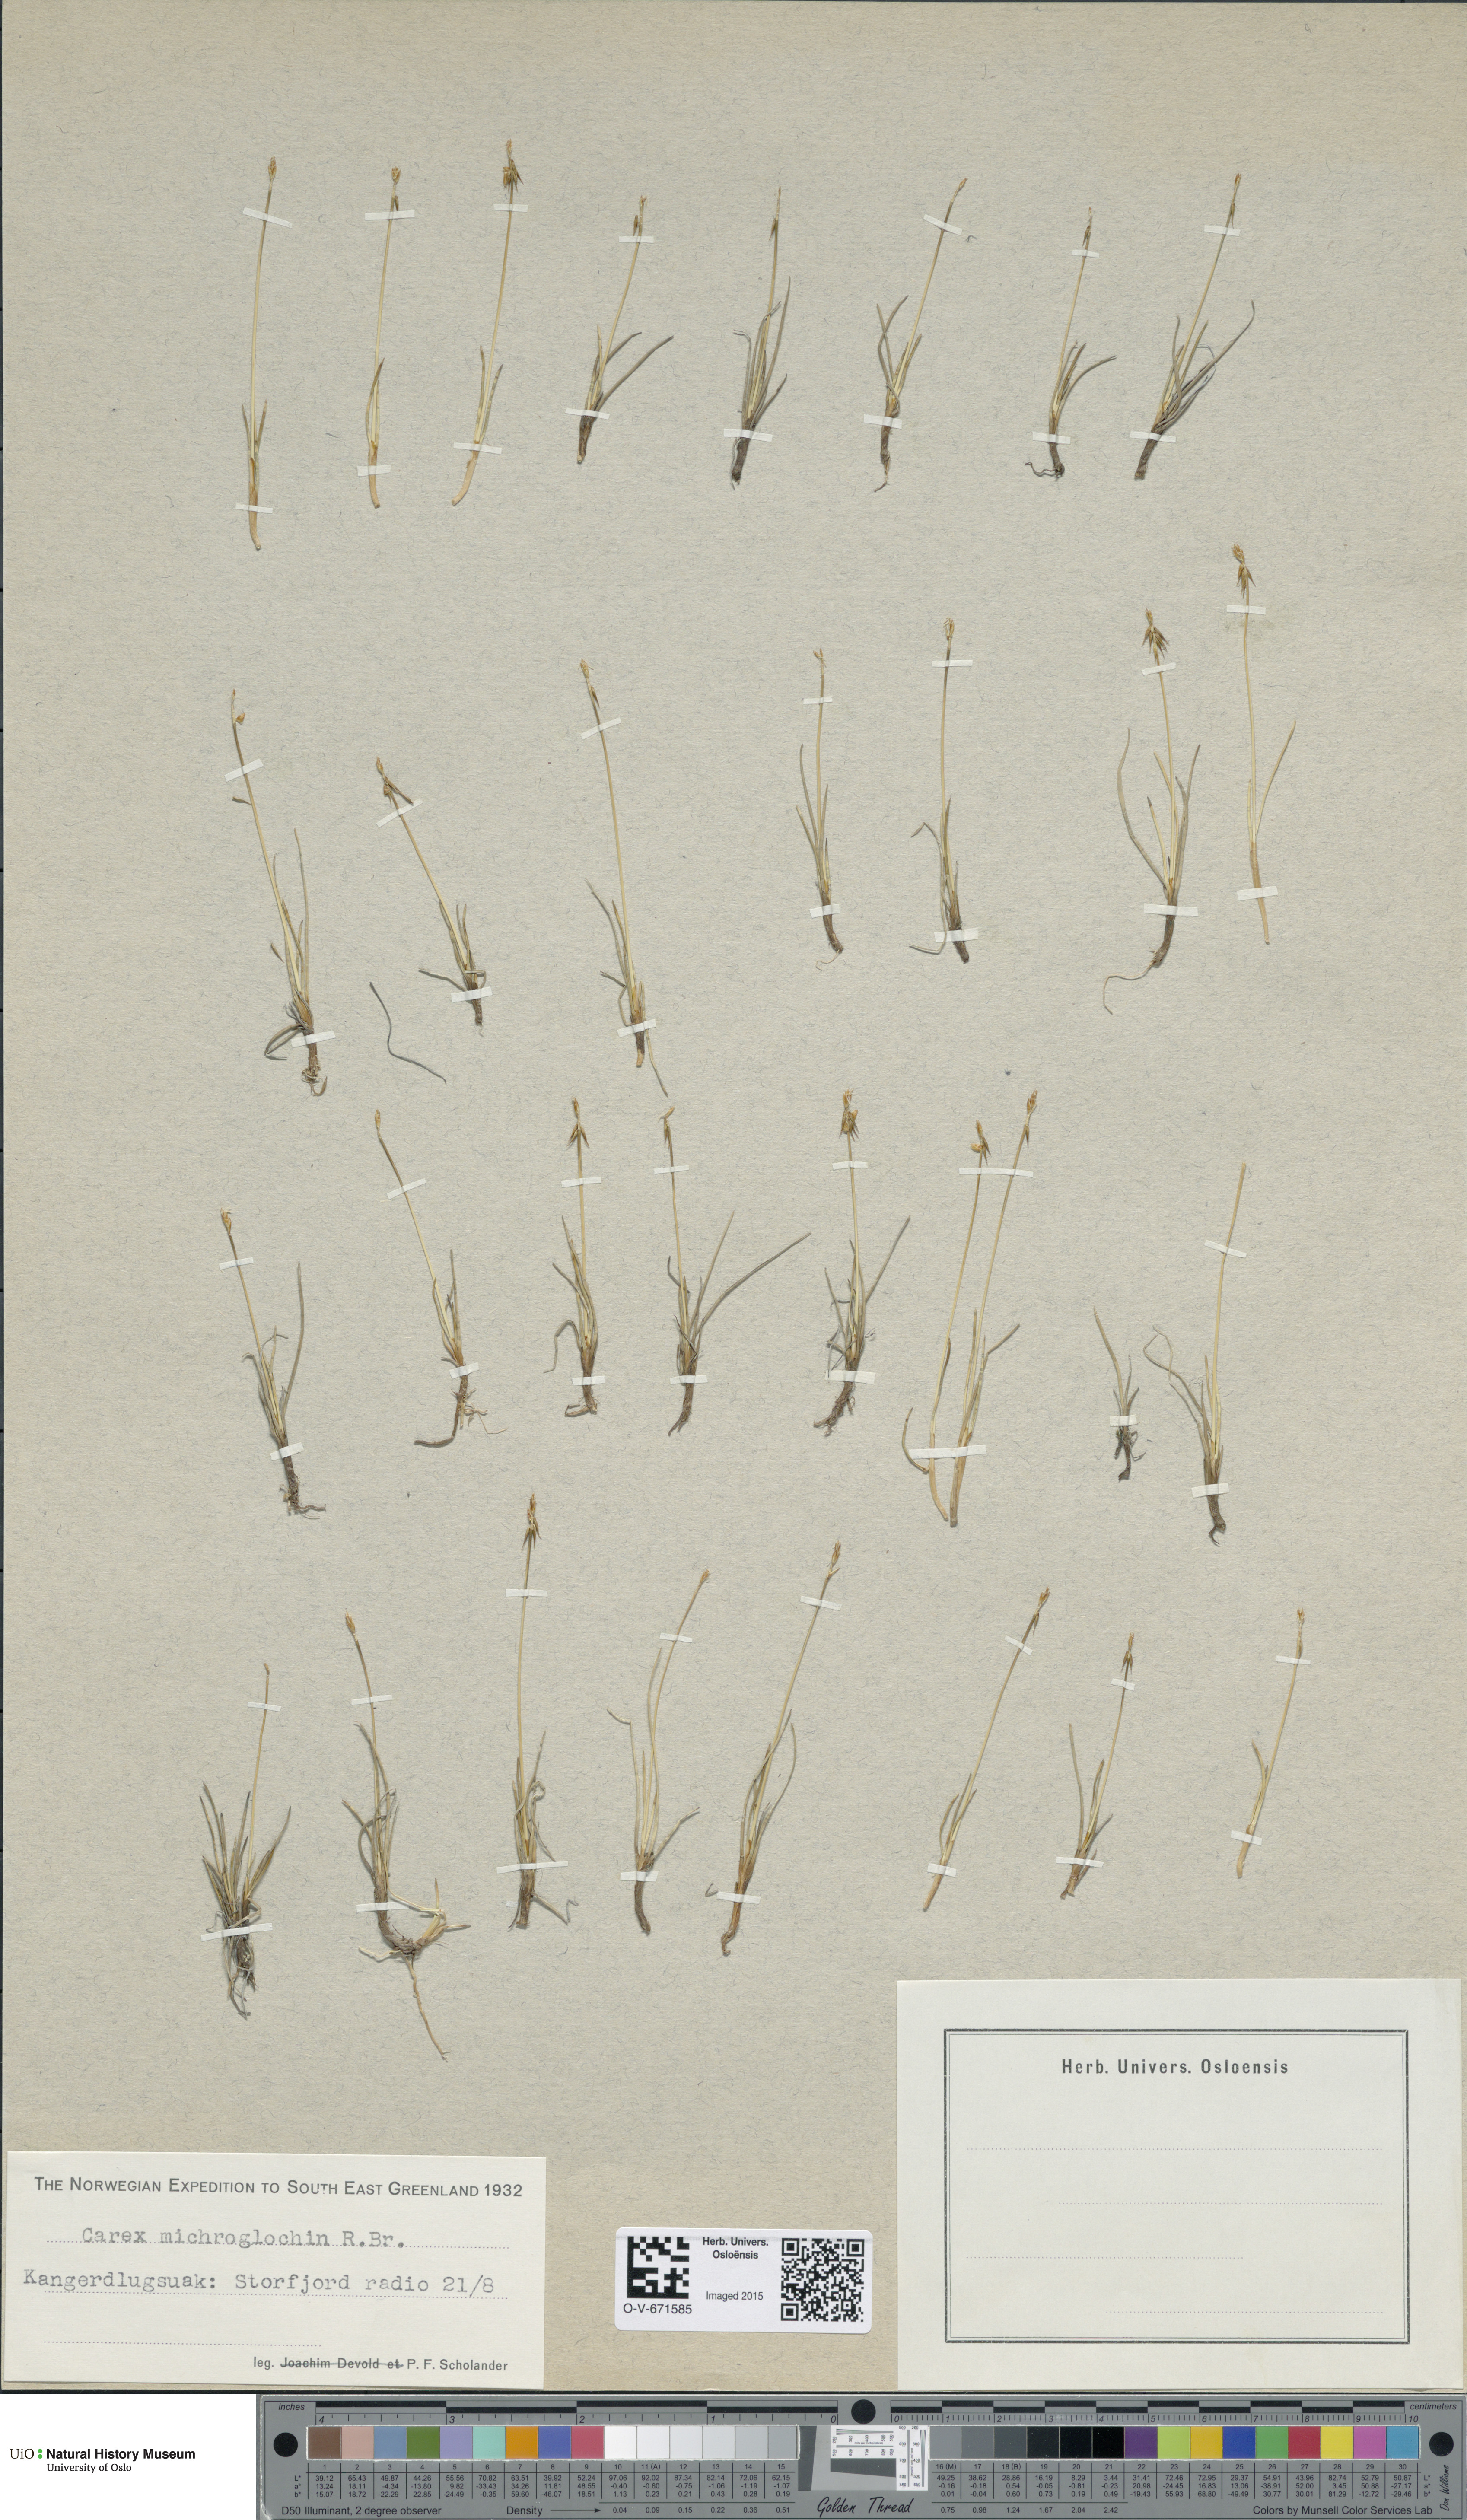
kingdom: Plantae
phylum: Tracheophyta
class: Liliopsida
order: Poales
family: Cyperaceae
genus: Carex
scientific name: Carex microglochin
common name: Bristle sedge
